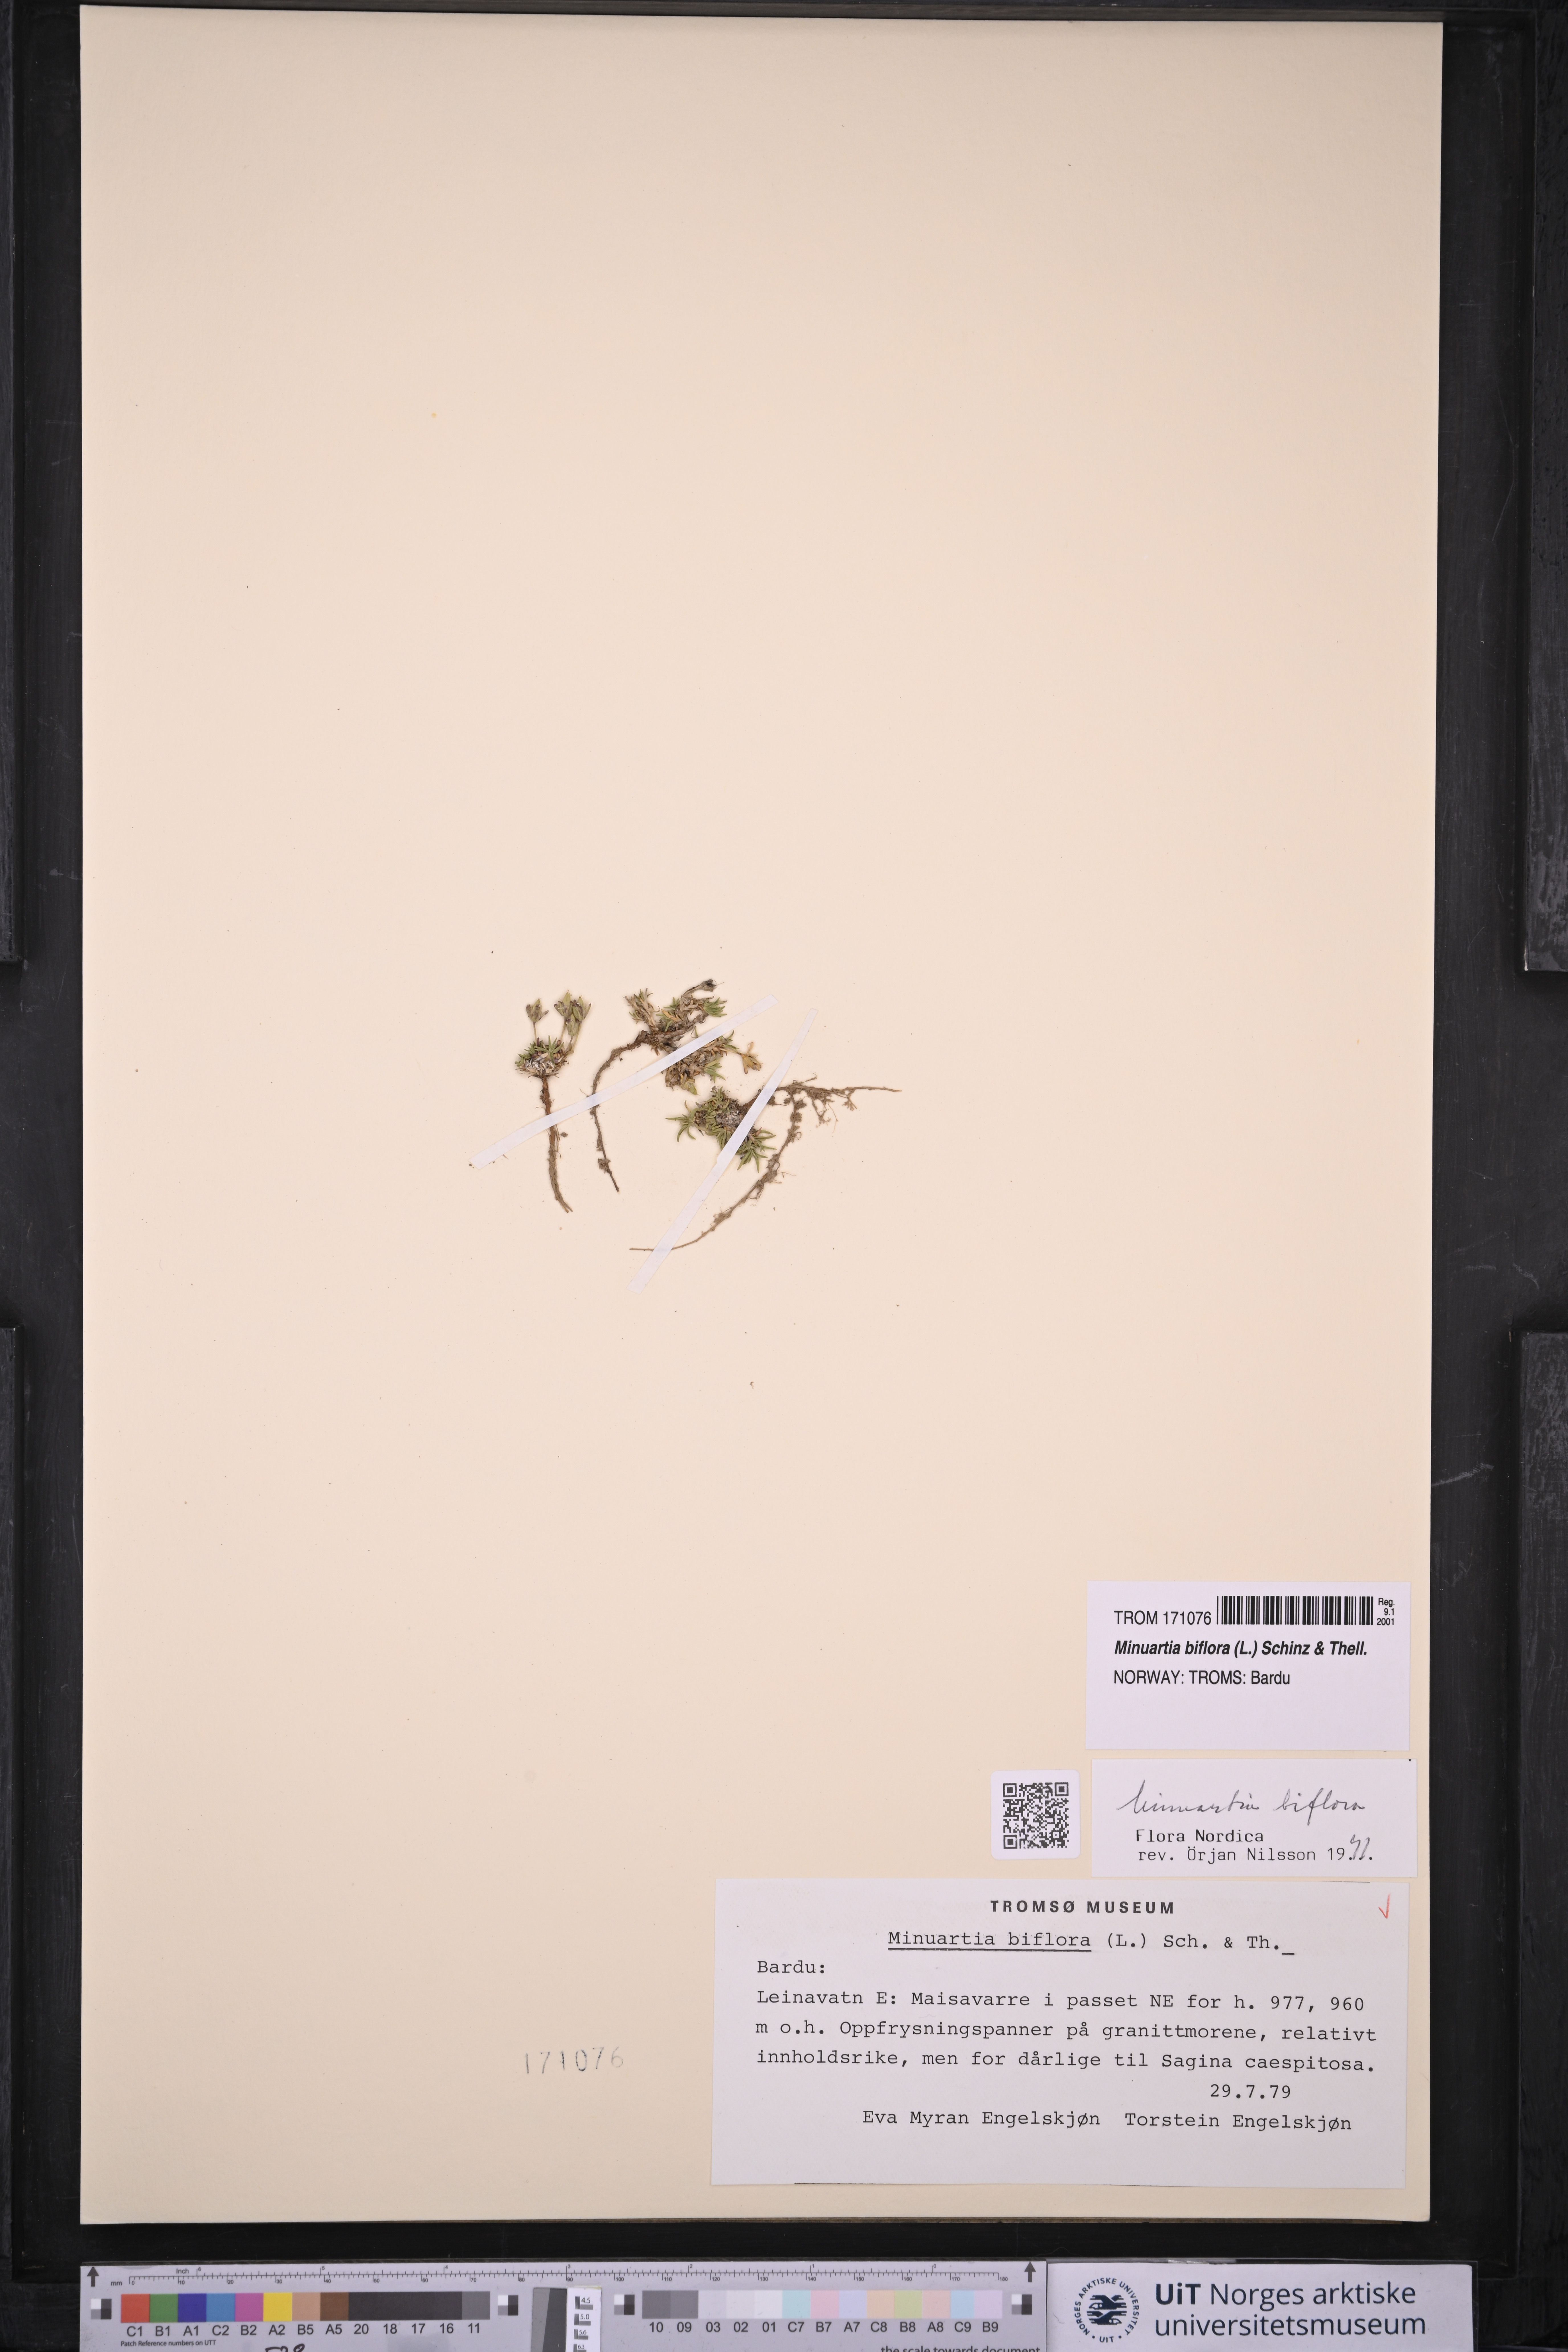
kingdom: Plantae
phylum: Tracheophyta
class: Magnoliopsida
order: Caryophyllales
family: Caryophyllaceae
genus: Cherleria
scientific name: Cherleria biflora
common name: Mountain sandwort
